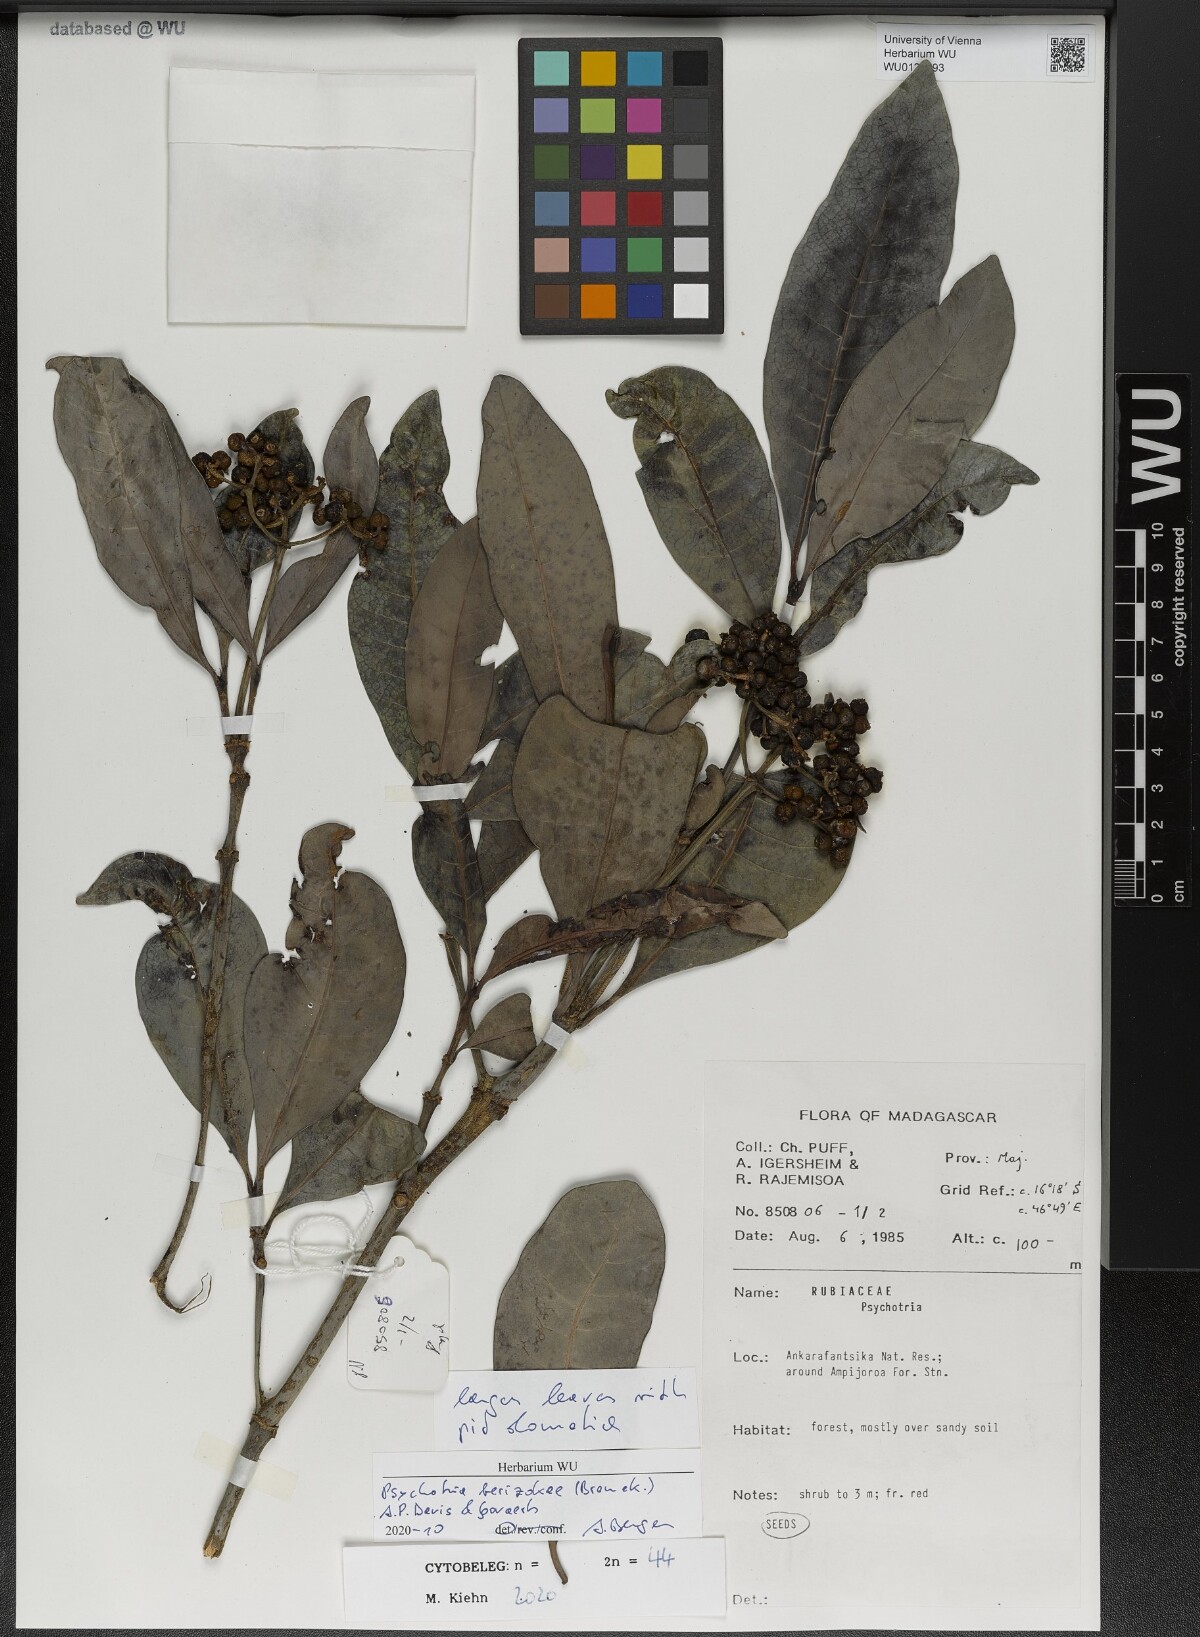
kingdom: Plantae
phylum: Tracheophyta
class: Magnoliopsida
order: Gentianales
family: Rubiaceae
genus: Psychotria
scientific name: Psychotria berizokae
